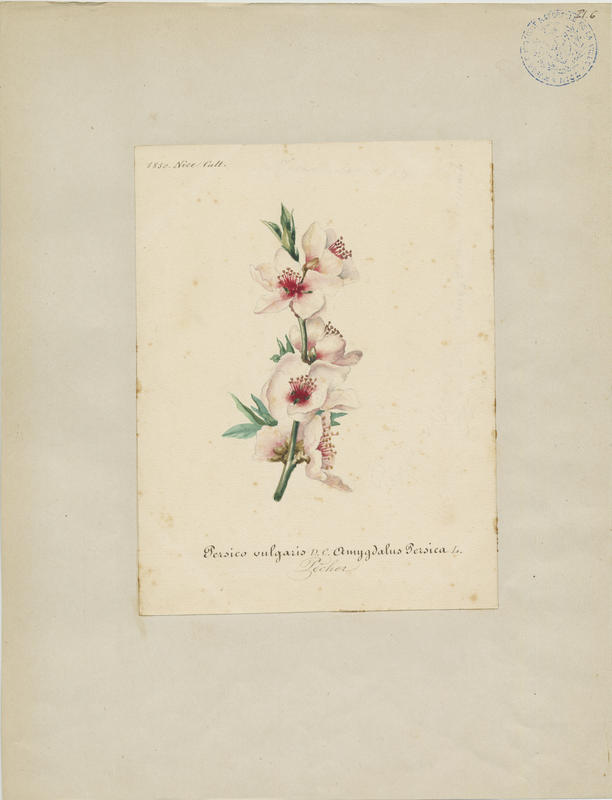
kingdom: Plantae
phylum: Tracheophyta
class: Magnoliopsida
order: Rosales
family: Rosaceae
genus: Prunus
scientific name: Prunus persica
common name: Peach
